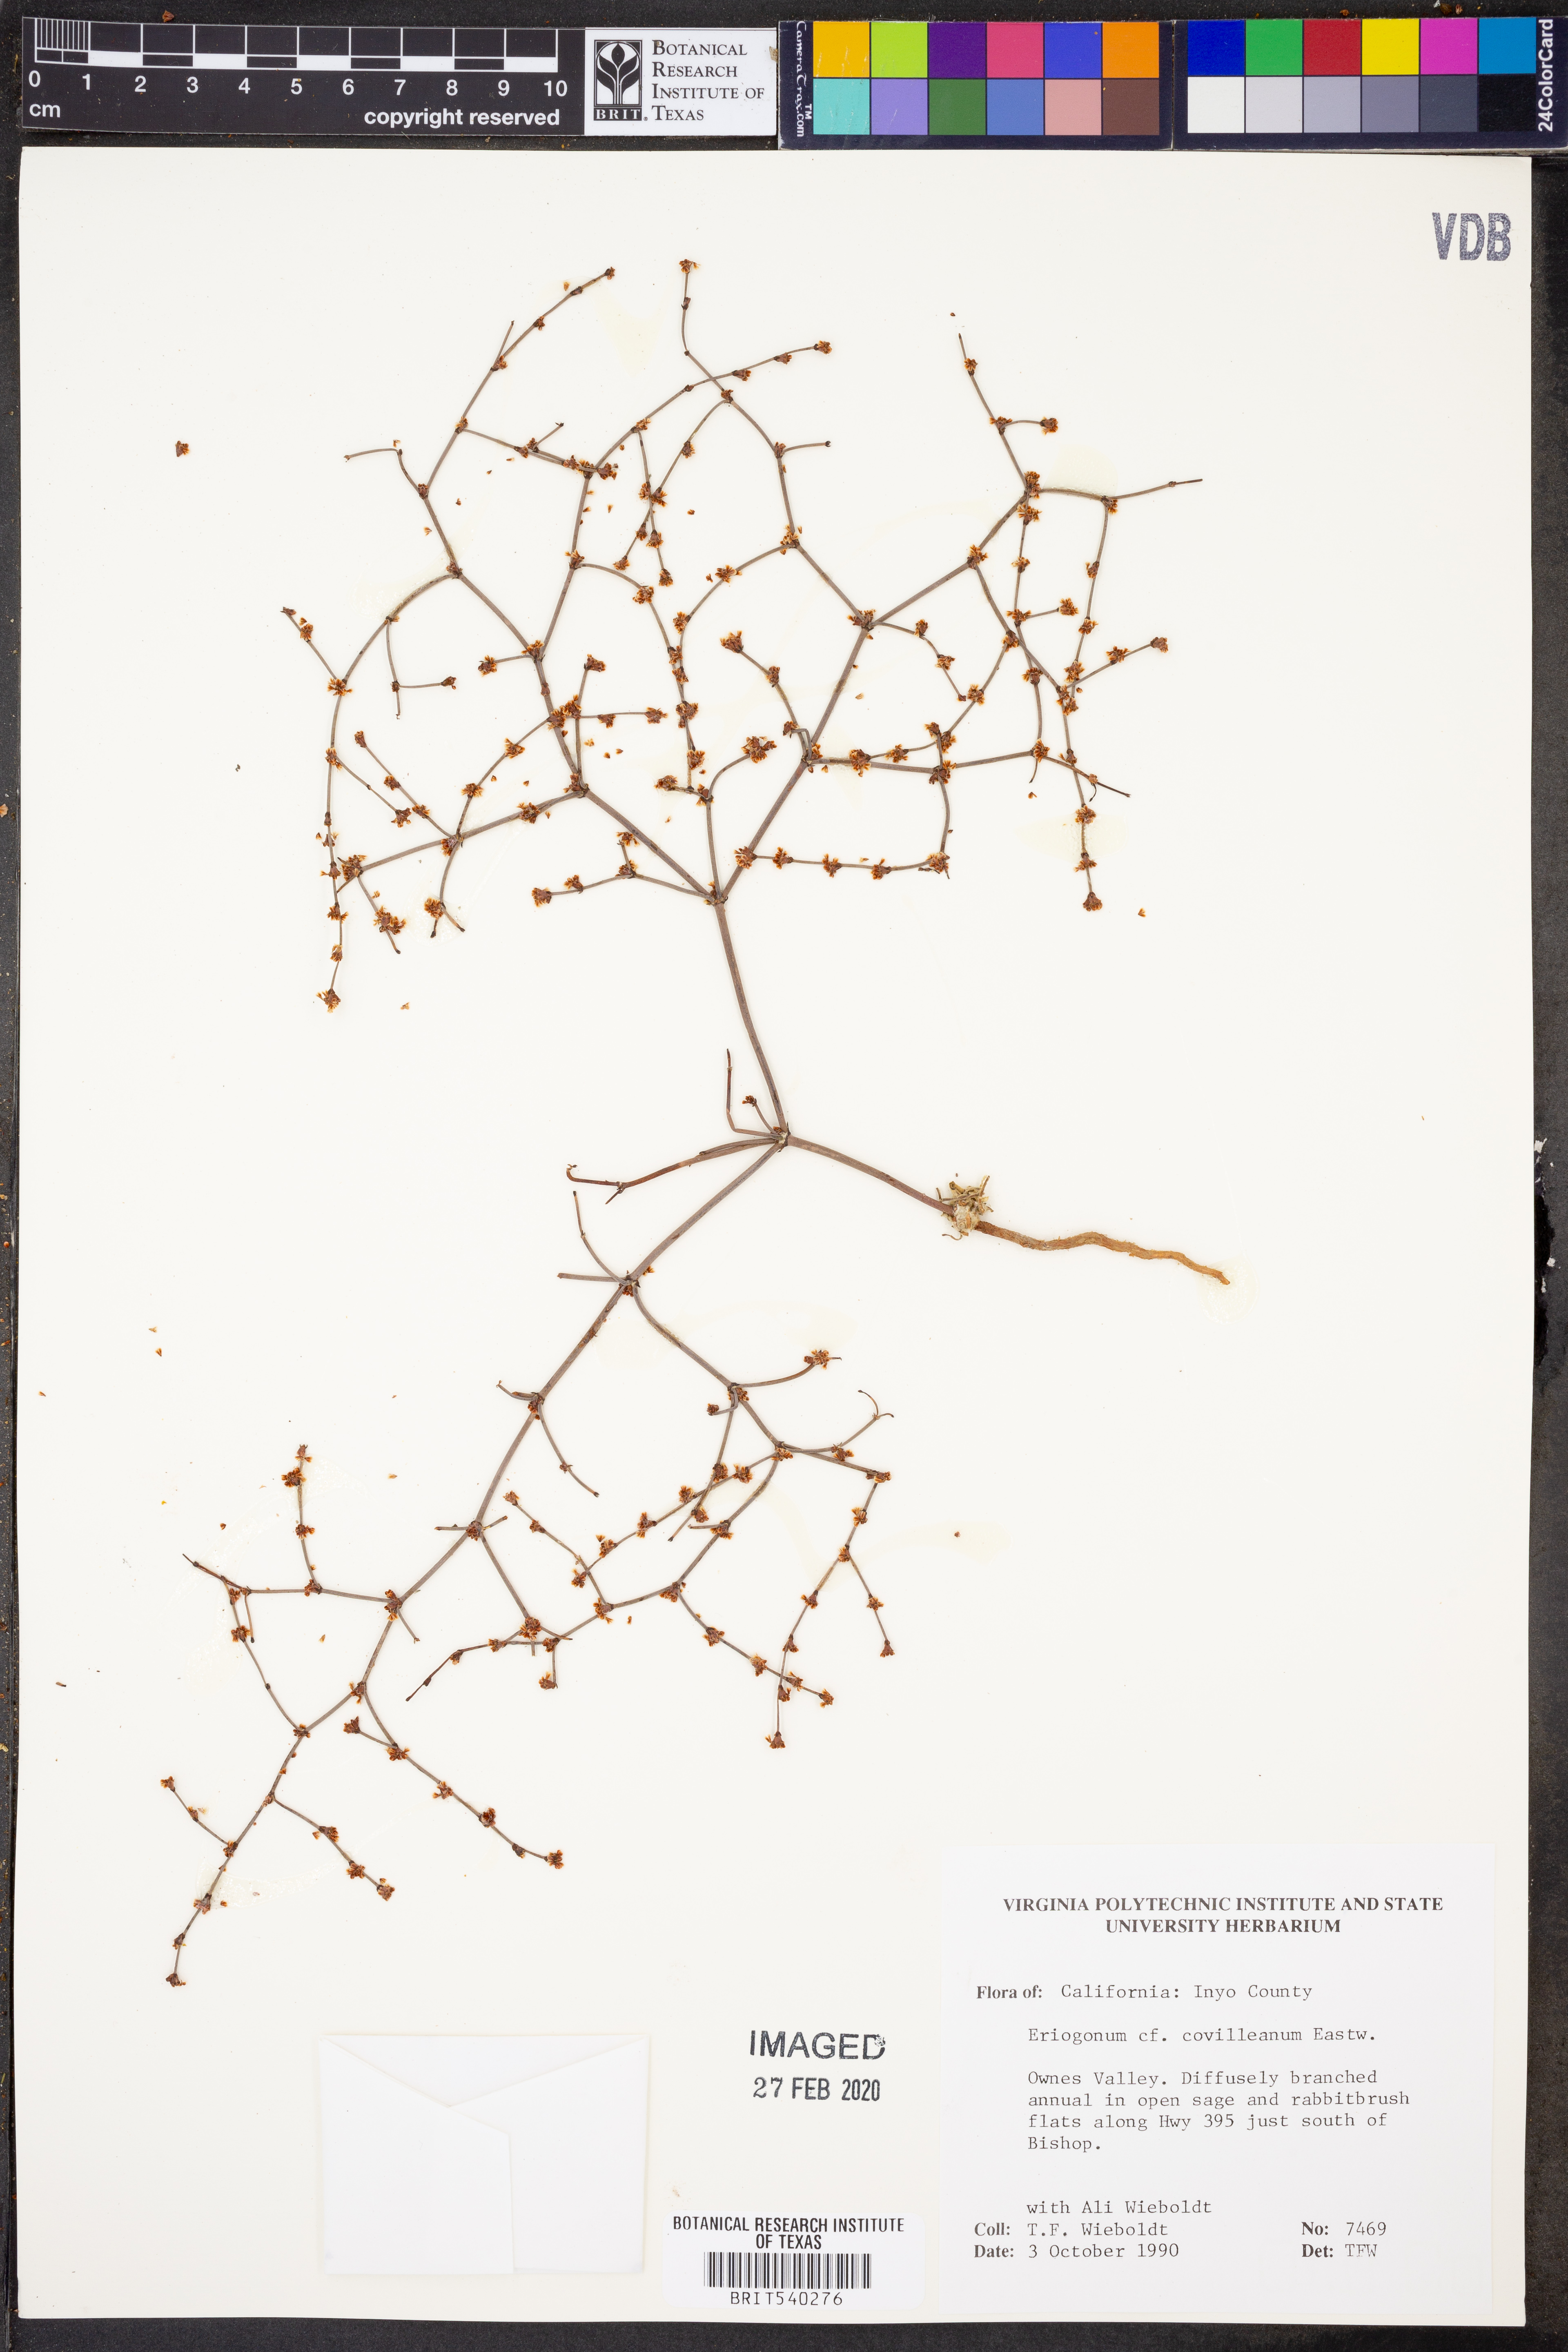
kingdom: Plantae
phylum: Tracheophyta
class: Magnoliopsida
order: Caryophyllales
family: Polygonaceae
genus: Eriogonum
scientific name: Eriogonum covilleanum
